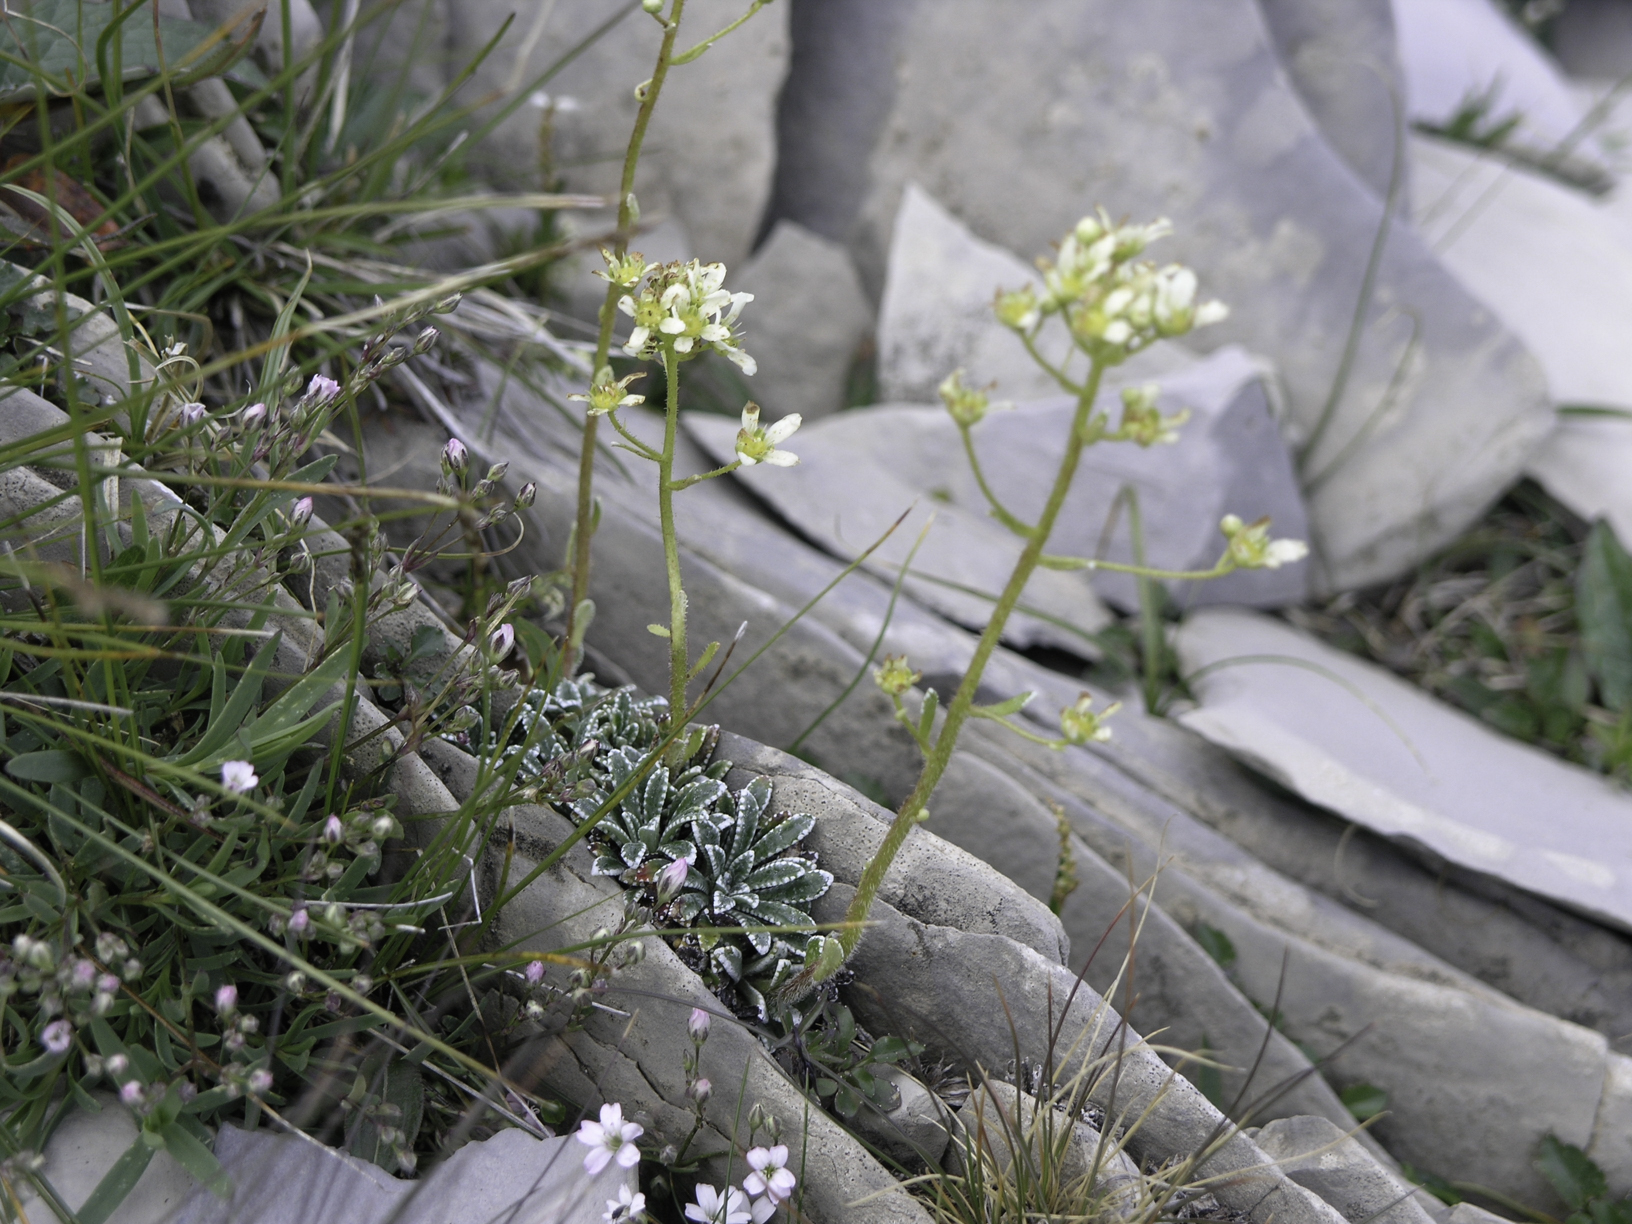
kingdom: Plantae
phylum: Tracheophyta
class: Magnoliopsida
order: Saxifragales
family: Saxifragaceae
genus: Saxifraga
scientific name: Saxifraga paniculata
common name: Livelong saxifrage
